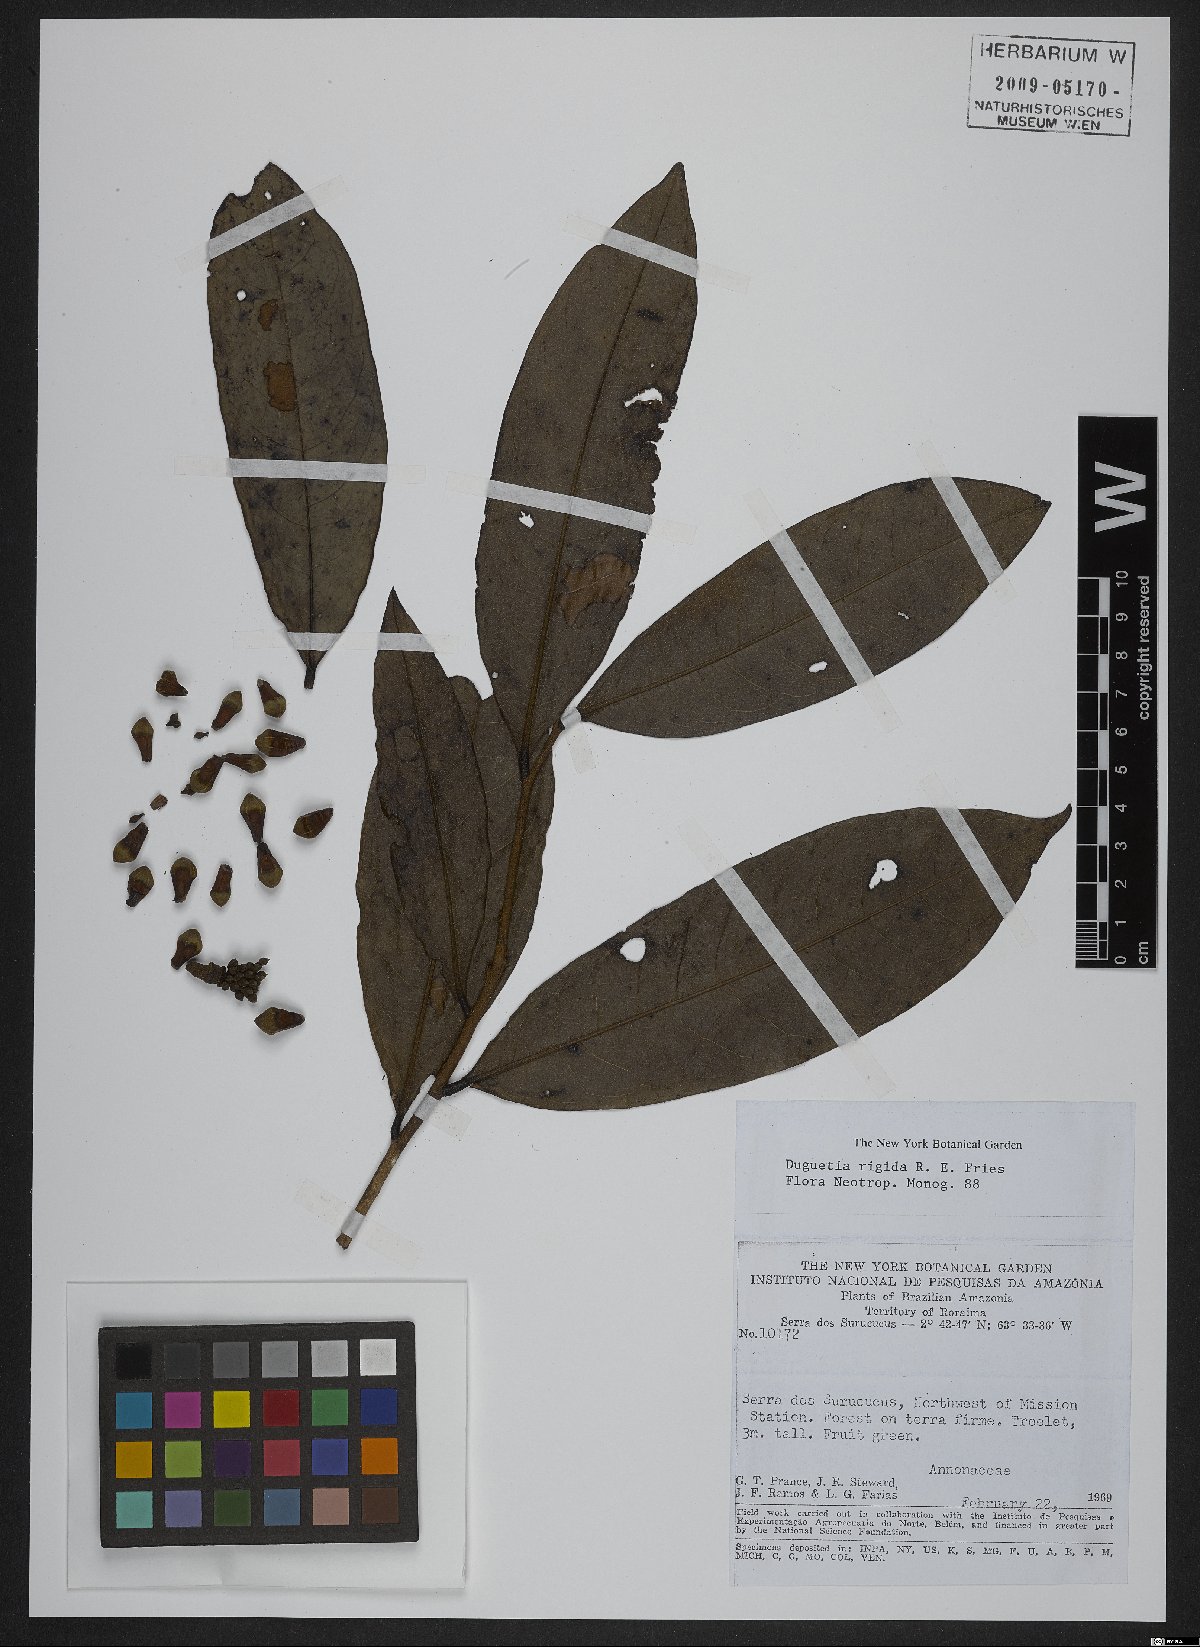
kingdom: Plantae
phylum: Tracheophyta
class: Magnoliopsida
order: Magnoliales
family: Annonaceae
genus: Duguetia
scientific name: Duguetia rigida
